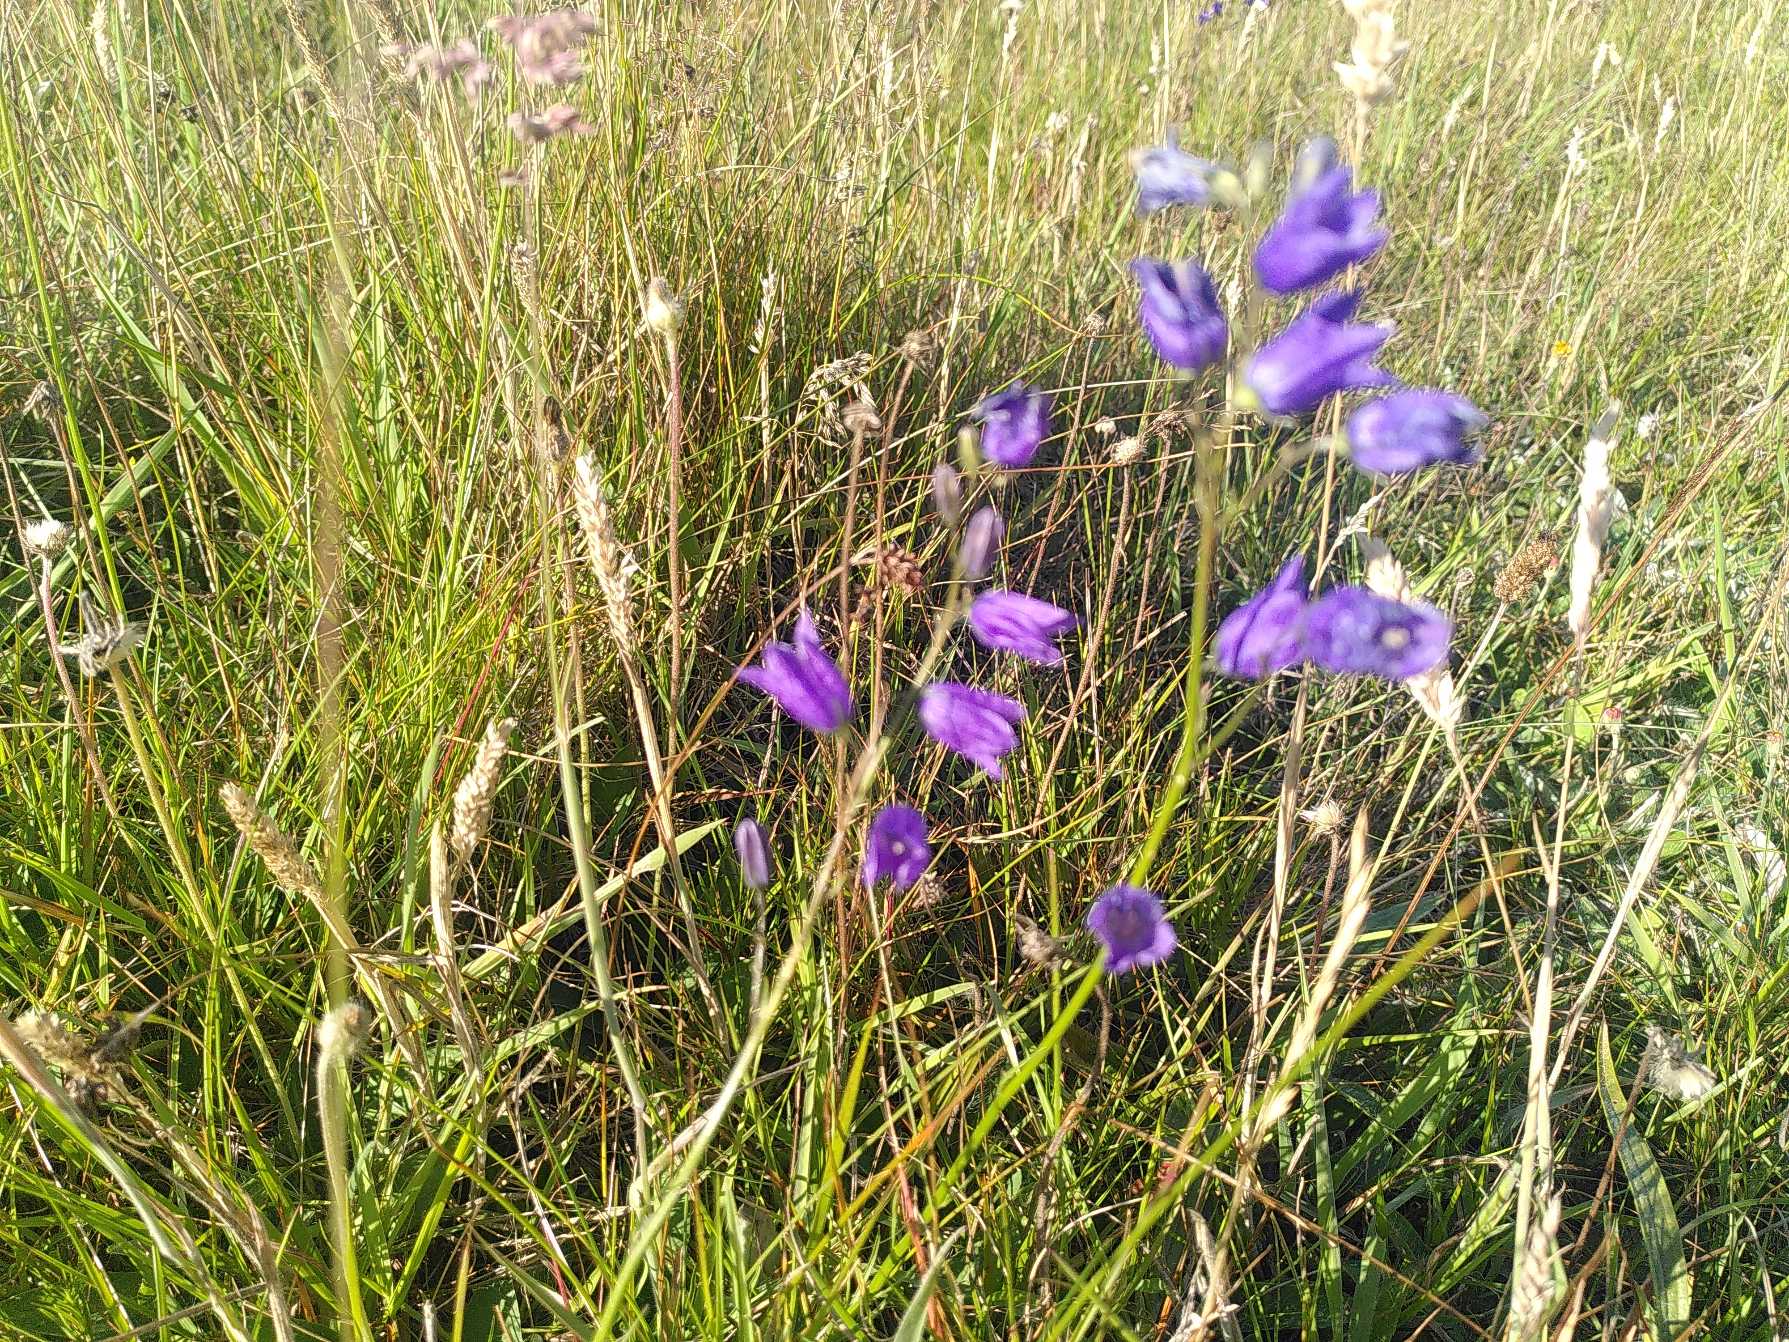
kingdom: Plantae
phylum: Tracheophyta
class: Magnoliopsida
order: Asterales
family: Campanulaceae
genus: Campanula
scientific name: Campanula persicifolia
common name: Smalbladet klokke
